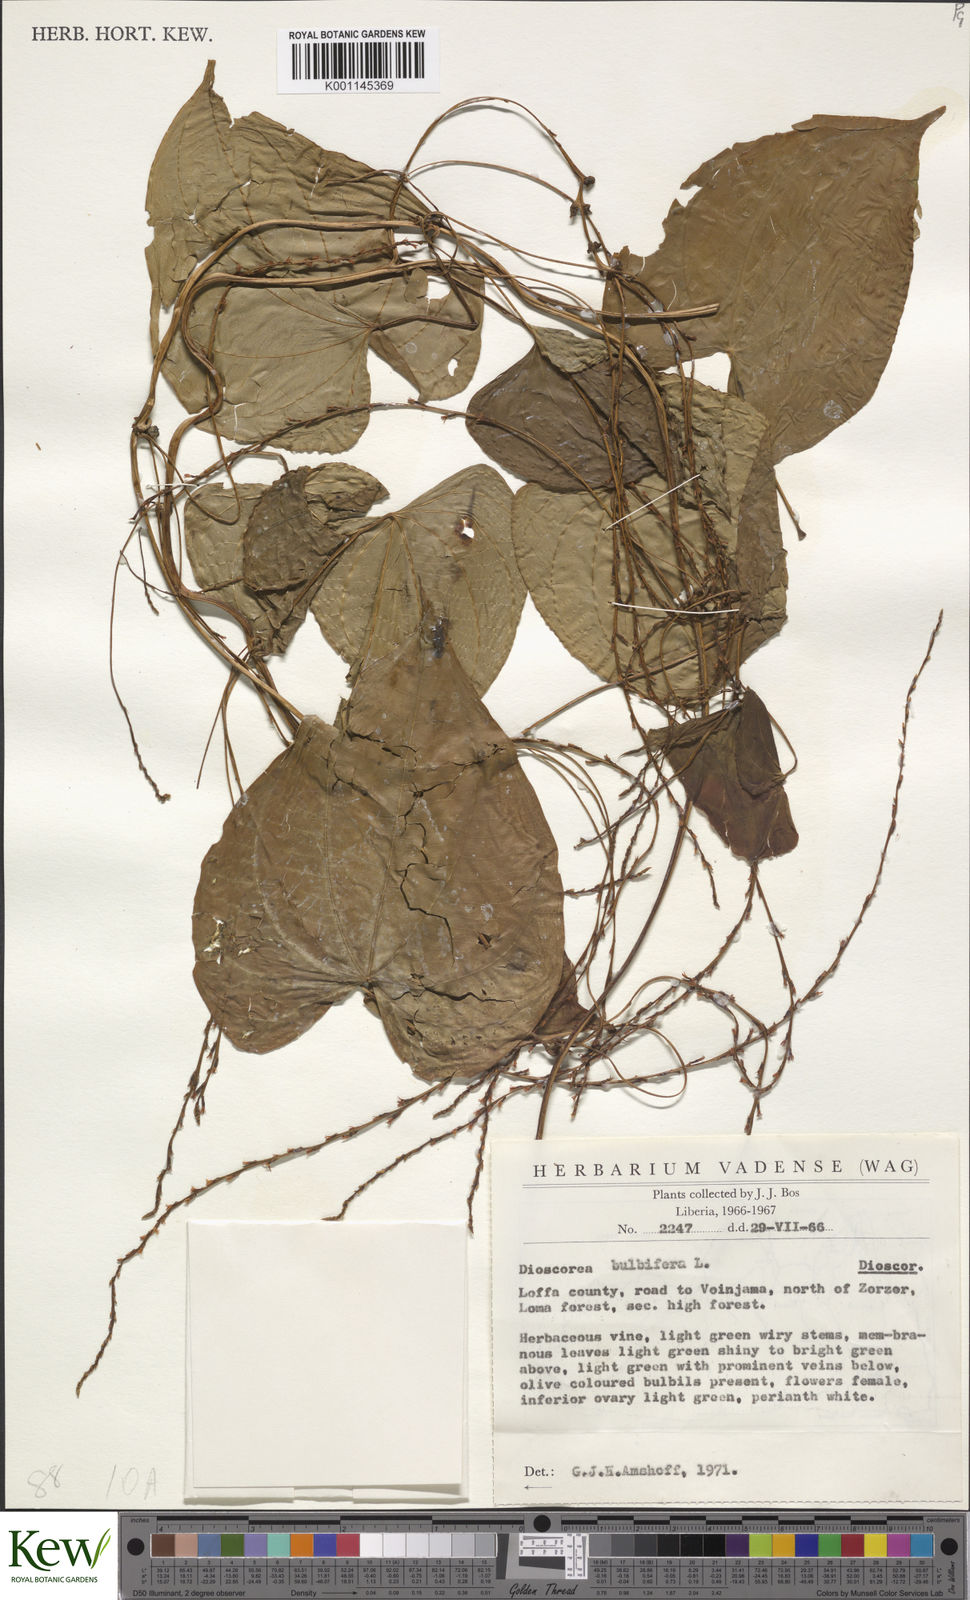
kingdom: Plantae
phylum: Tracheophyta
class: Liliopsida
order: Dioscoreales
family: Dioscoreaceae
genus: Dioscorea
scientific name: Dioscorea bulbifera
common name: Air yam
